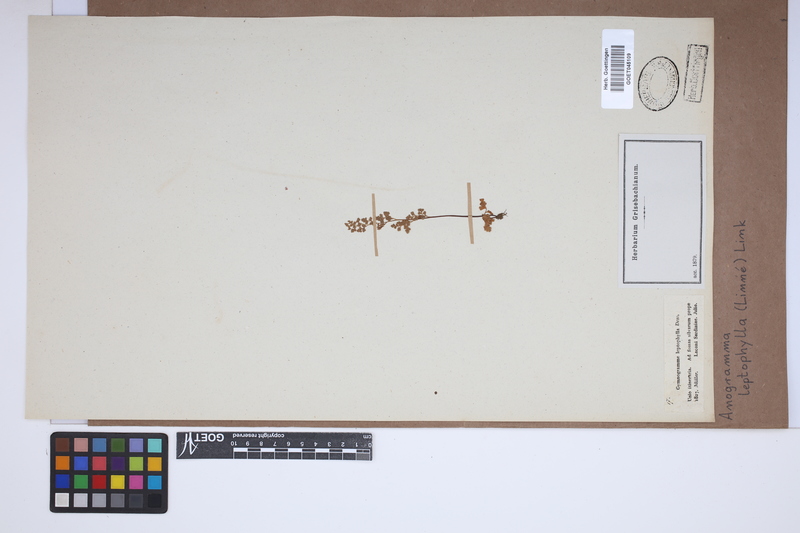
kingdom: Plantae
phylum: Tracheophyta
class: Polypodiopsida
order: Polypodiales
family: Pteridaceae
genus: Anogramma
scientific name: Anogramma leptophylla
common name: Jersey fern
